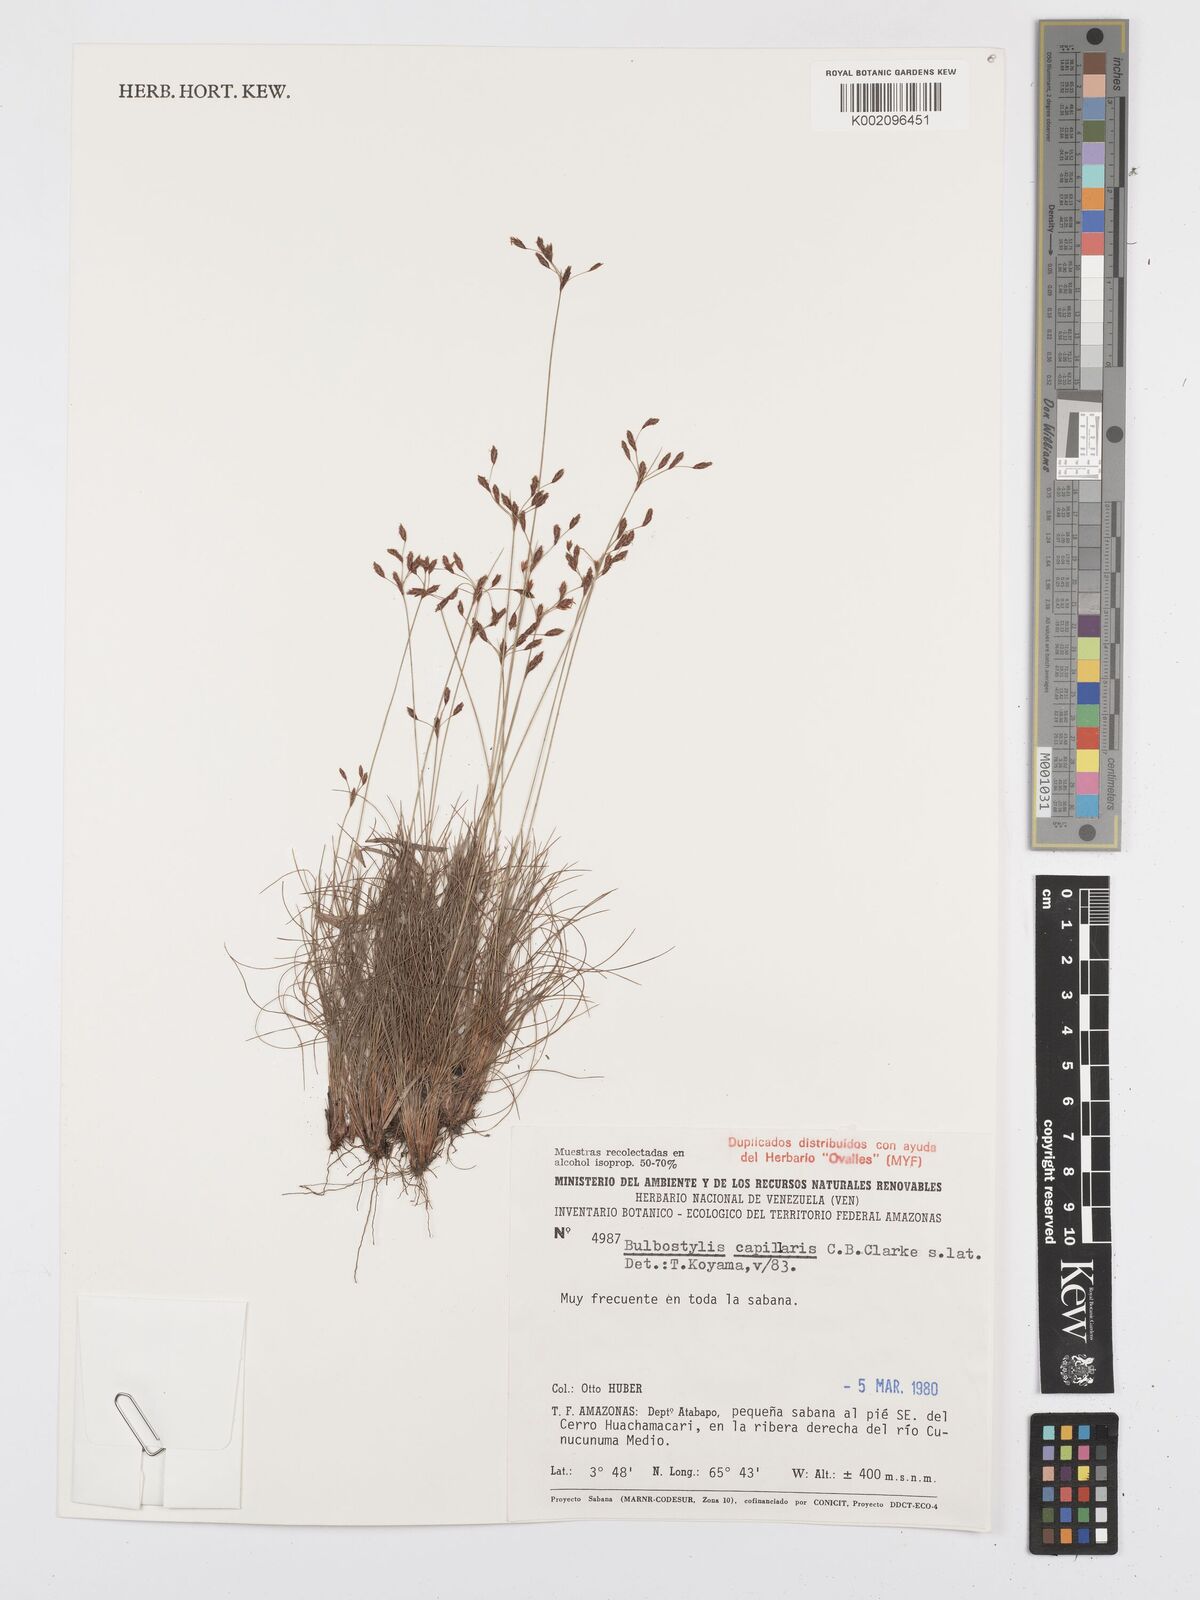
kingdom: Plantae
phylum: Tracheophyta
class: Liliopsida
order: Poales
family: Cyperaceae
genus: Bulbostylis
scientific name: Bulbostylis capillaris
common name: Densetuft hairsedge
